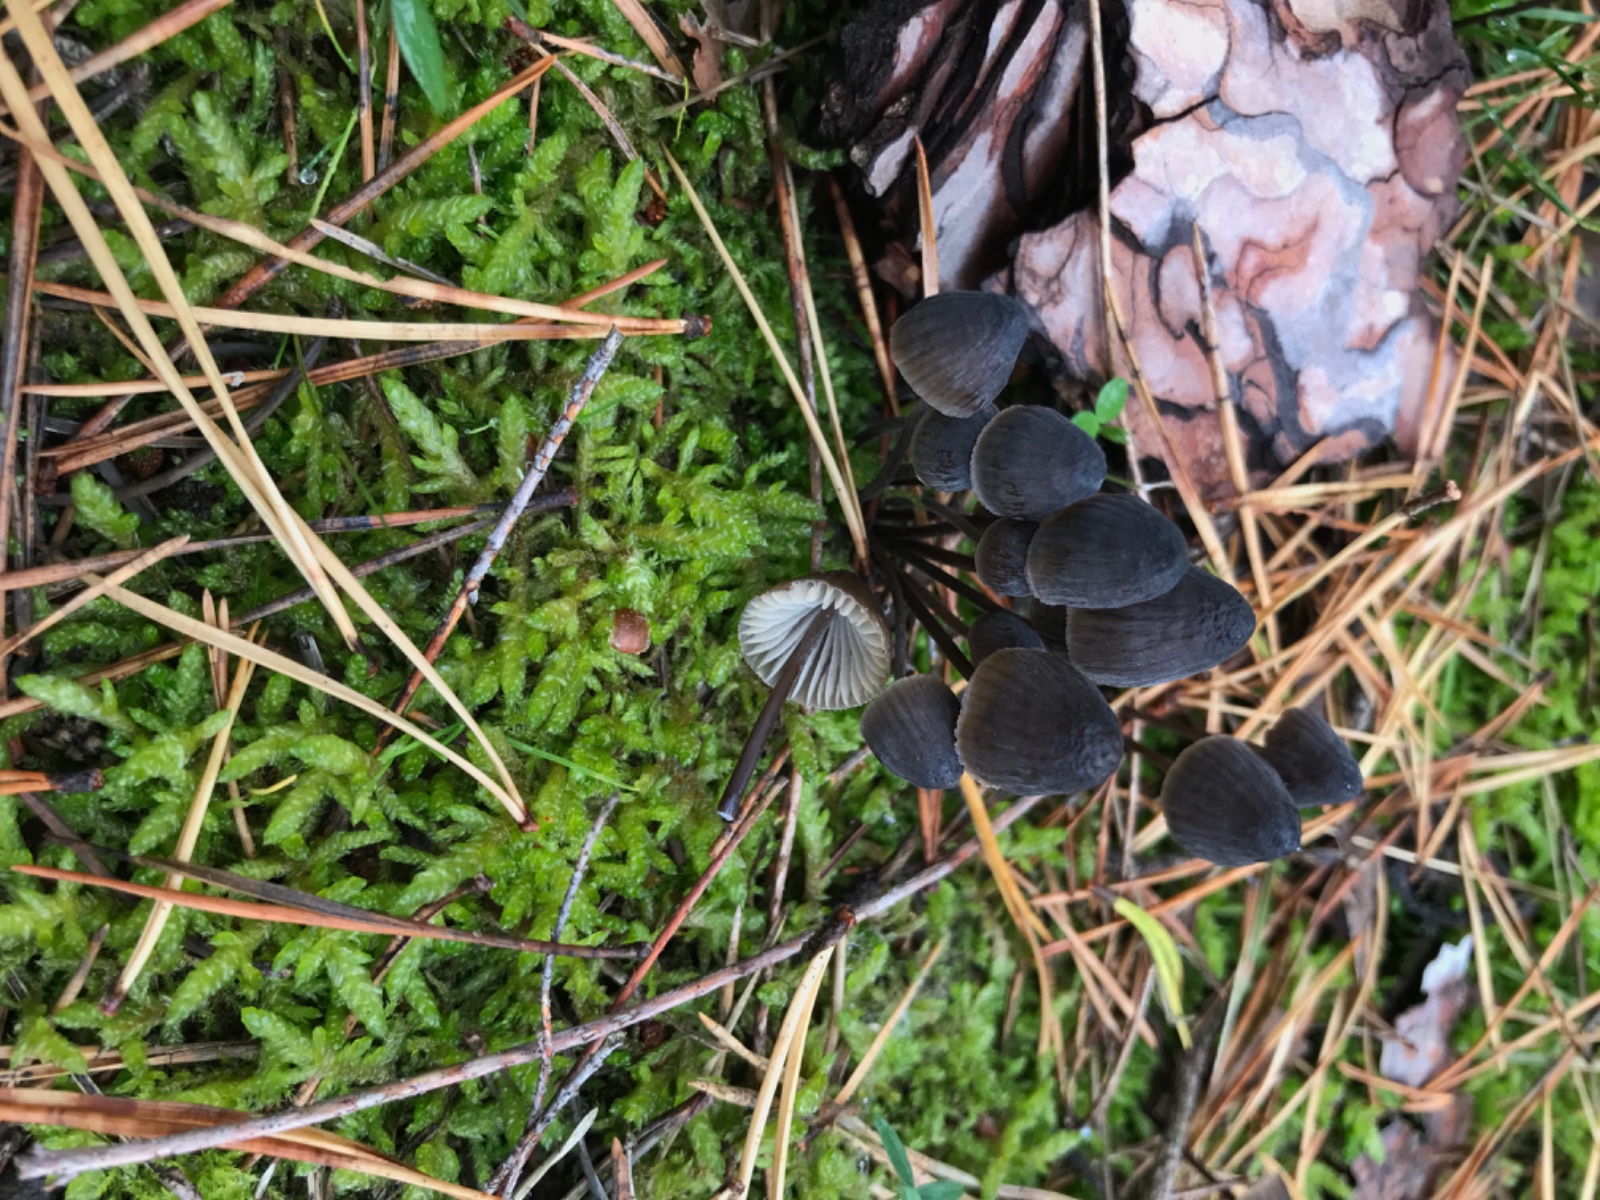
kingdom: Fungi
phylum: Basidiomycota
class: Agaricomycetes
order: Agaricales
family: Mycenaceae
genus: Mycena
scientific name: Mycena galopus
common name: hvidmælket huesvamp
